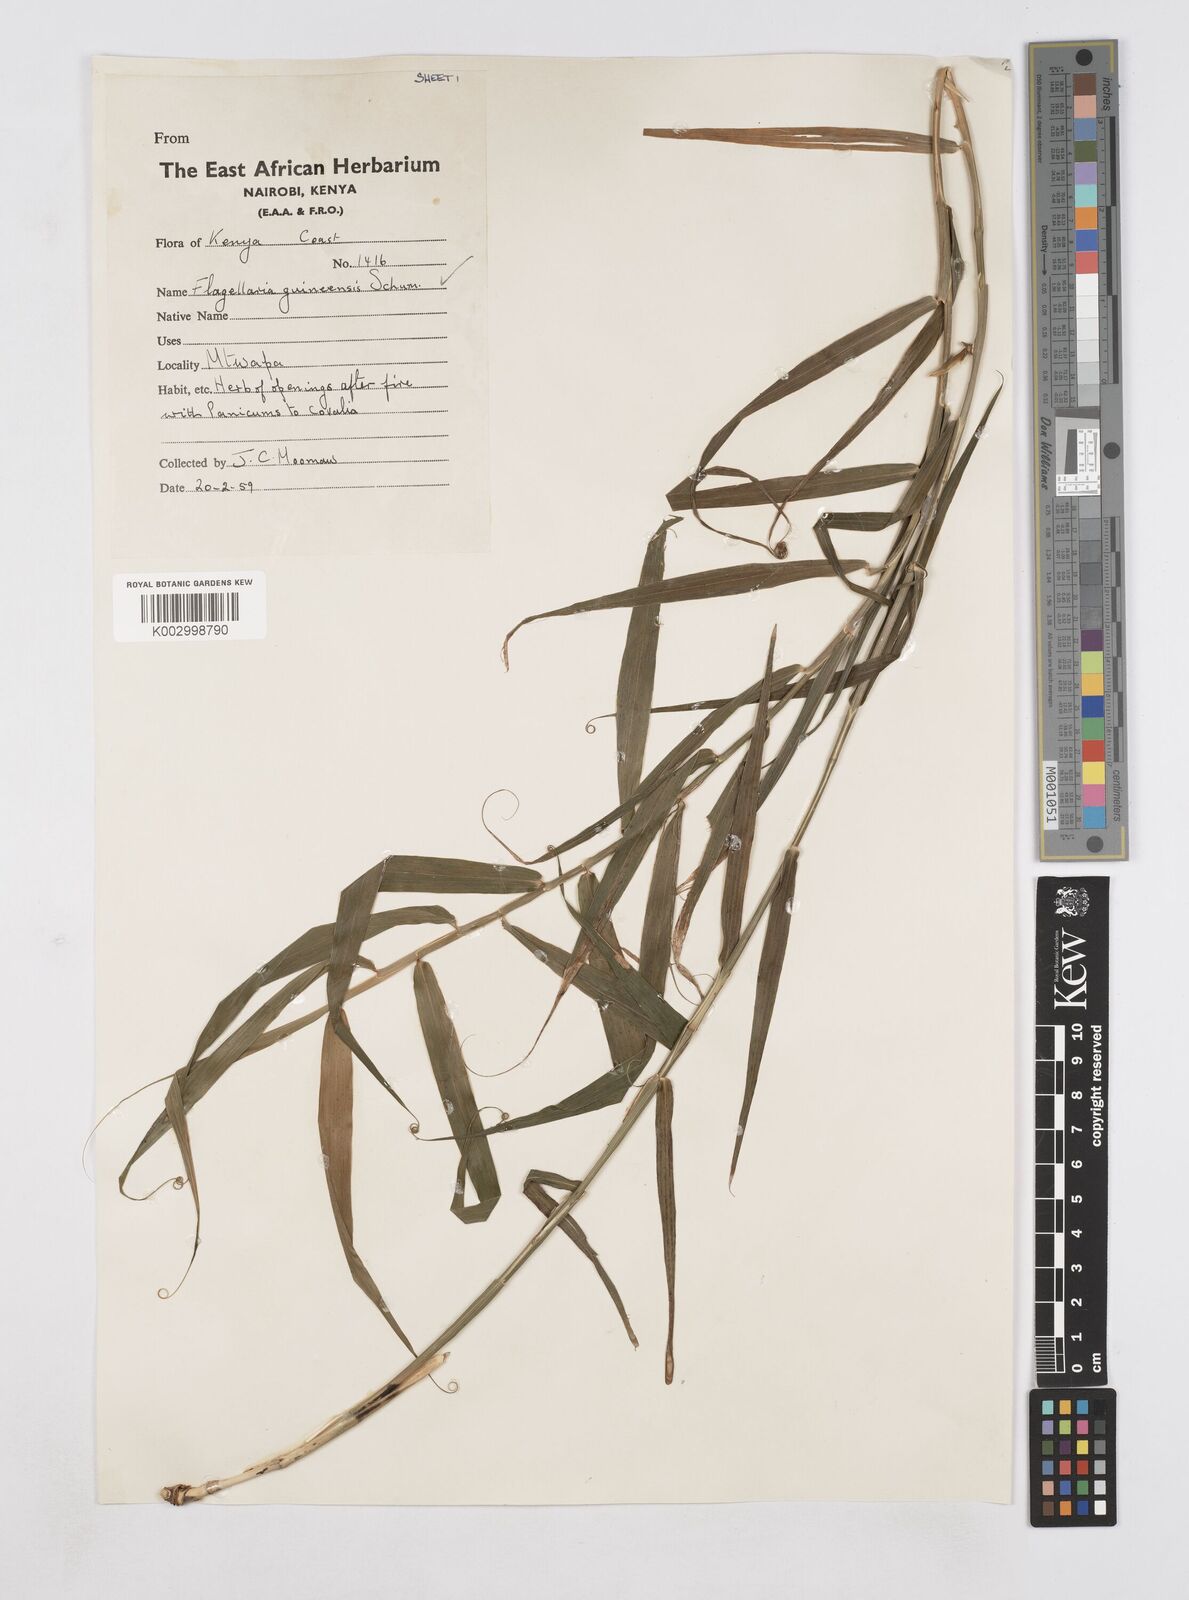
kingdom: Plantae
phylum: Tracheophyta
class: Liliopsida
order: Poales
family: Flagellariaceae
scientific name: Flagellariaceae
